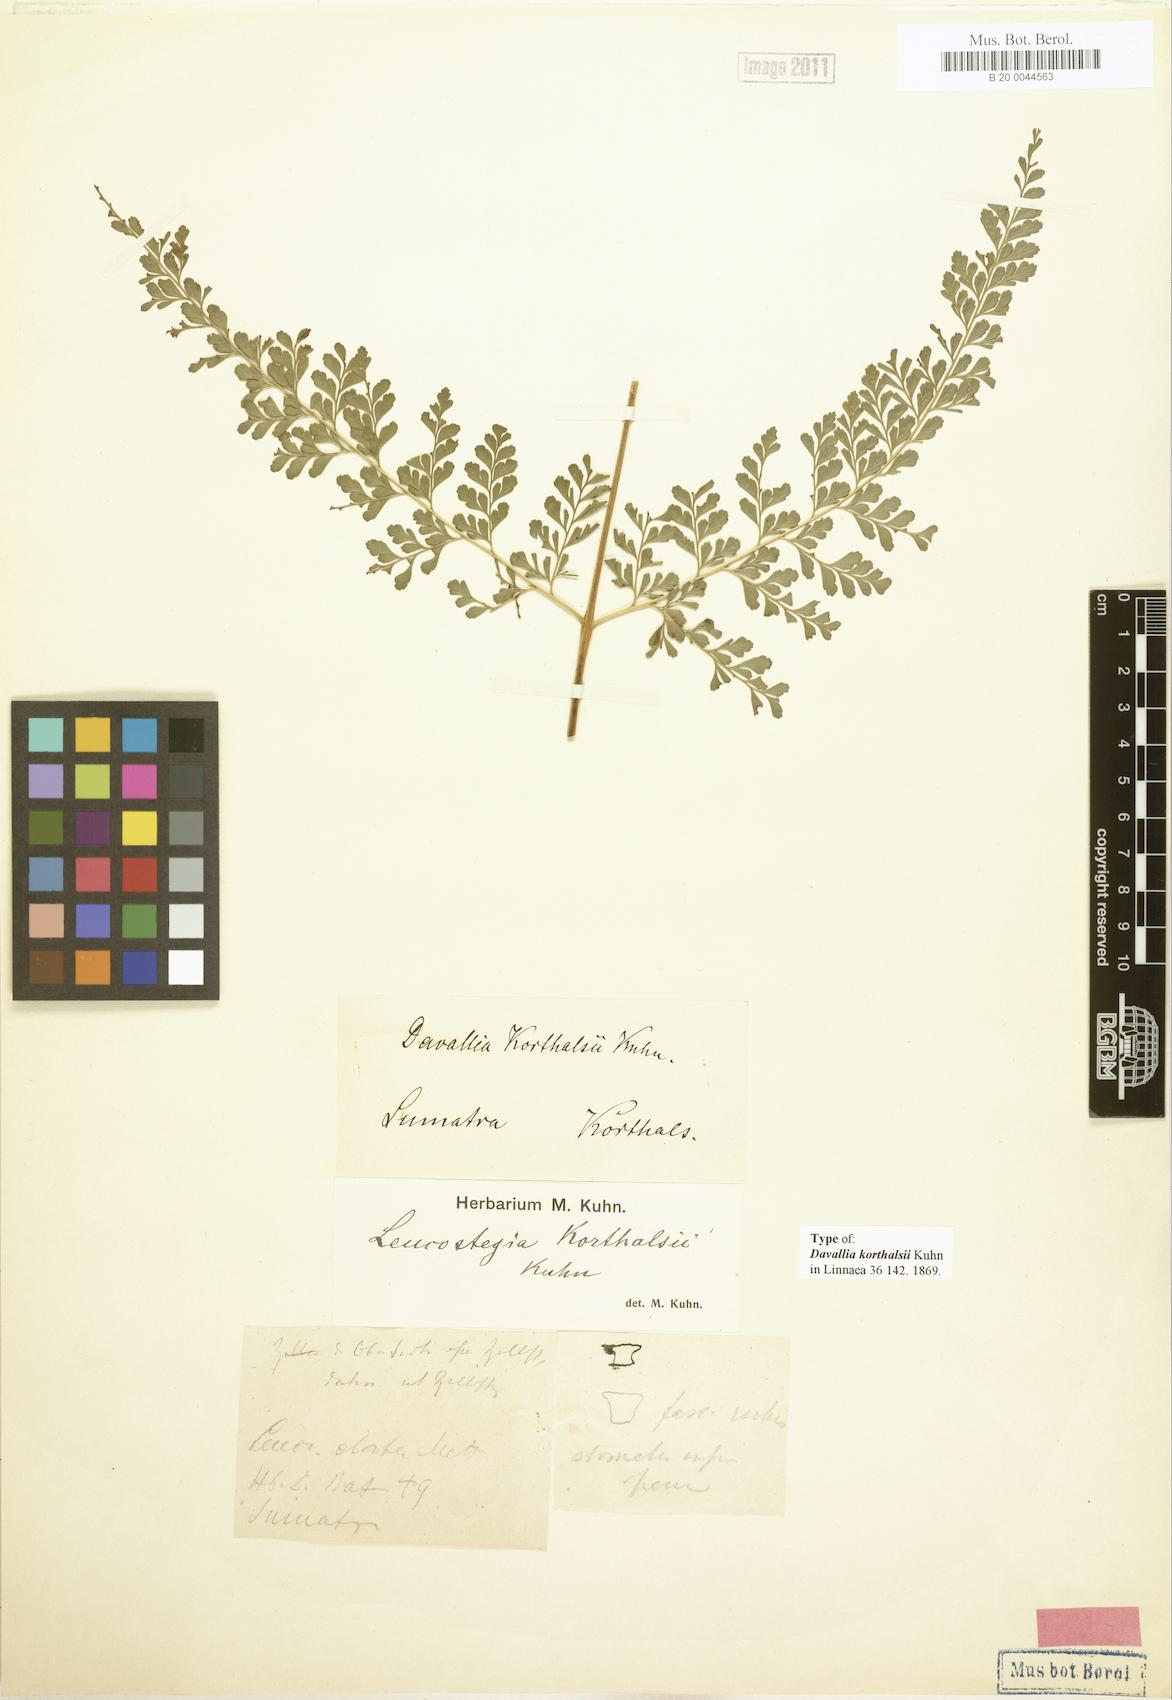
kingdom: Plantae
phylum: Tracheophyta
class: Polypodiopsida
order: Polypodiales
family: Davalliaceae
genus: Davallia
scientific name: Davallia korthalsii
